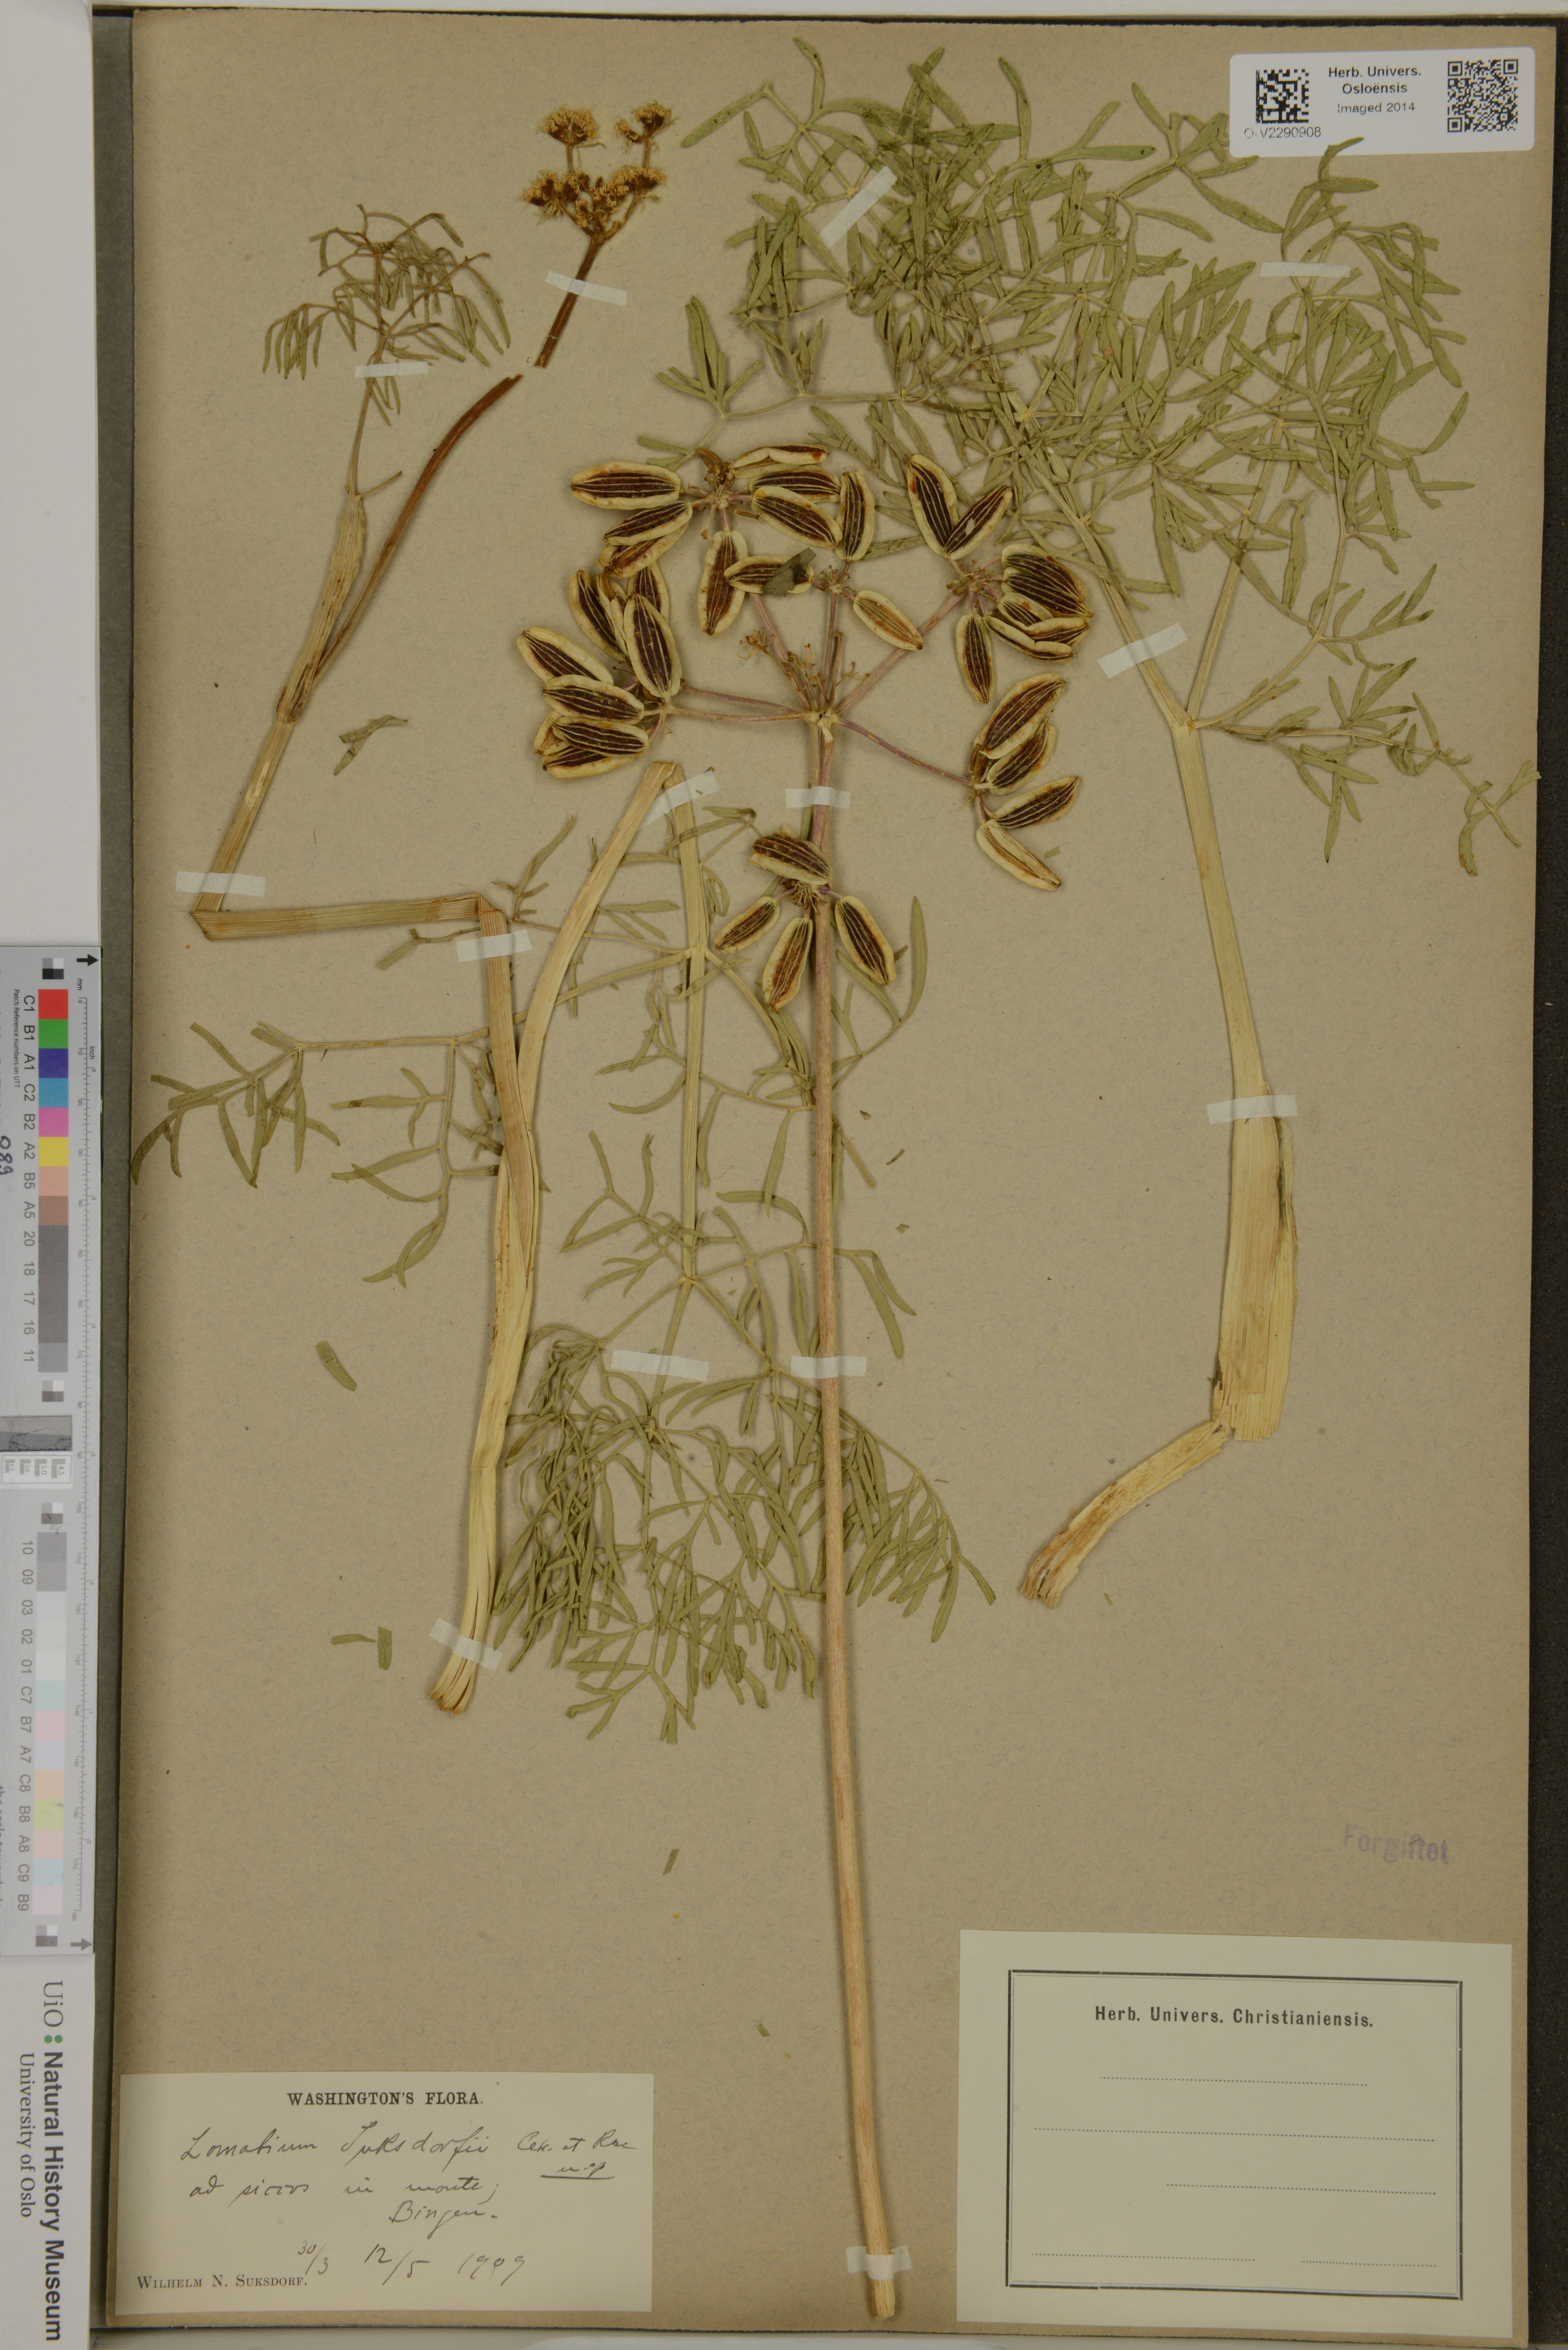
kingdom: Plantae
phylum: Tracheophyta
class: Magnoliopsida
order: Apiales
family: Apiaceae
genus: Lomatium
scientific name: Lomatium suksdorfii
